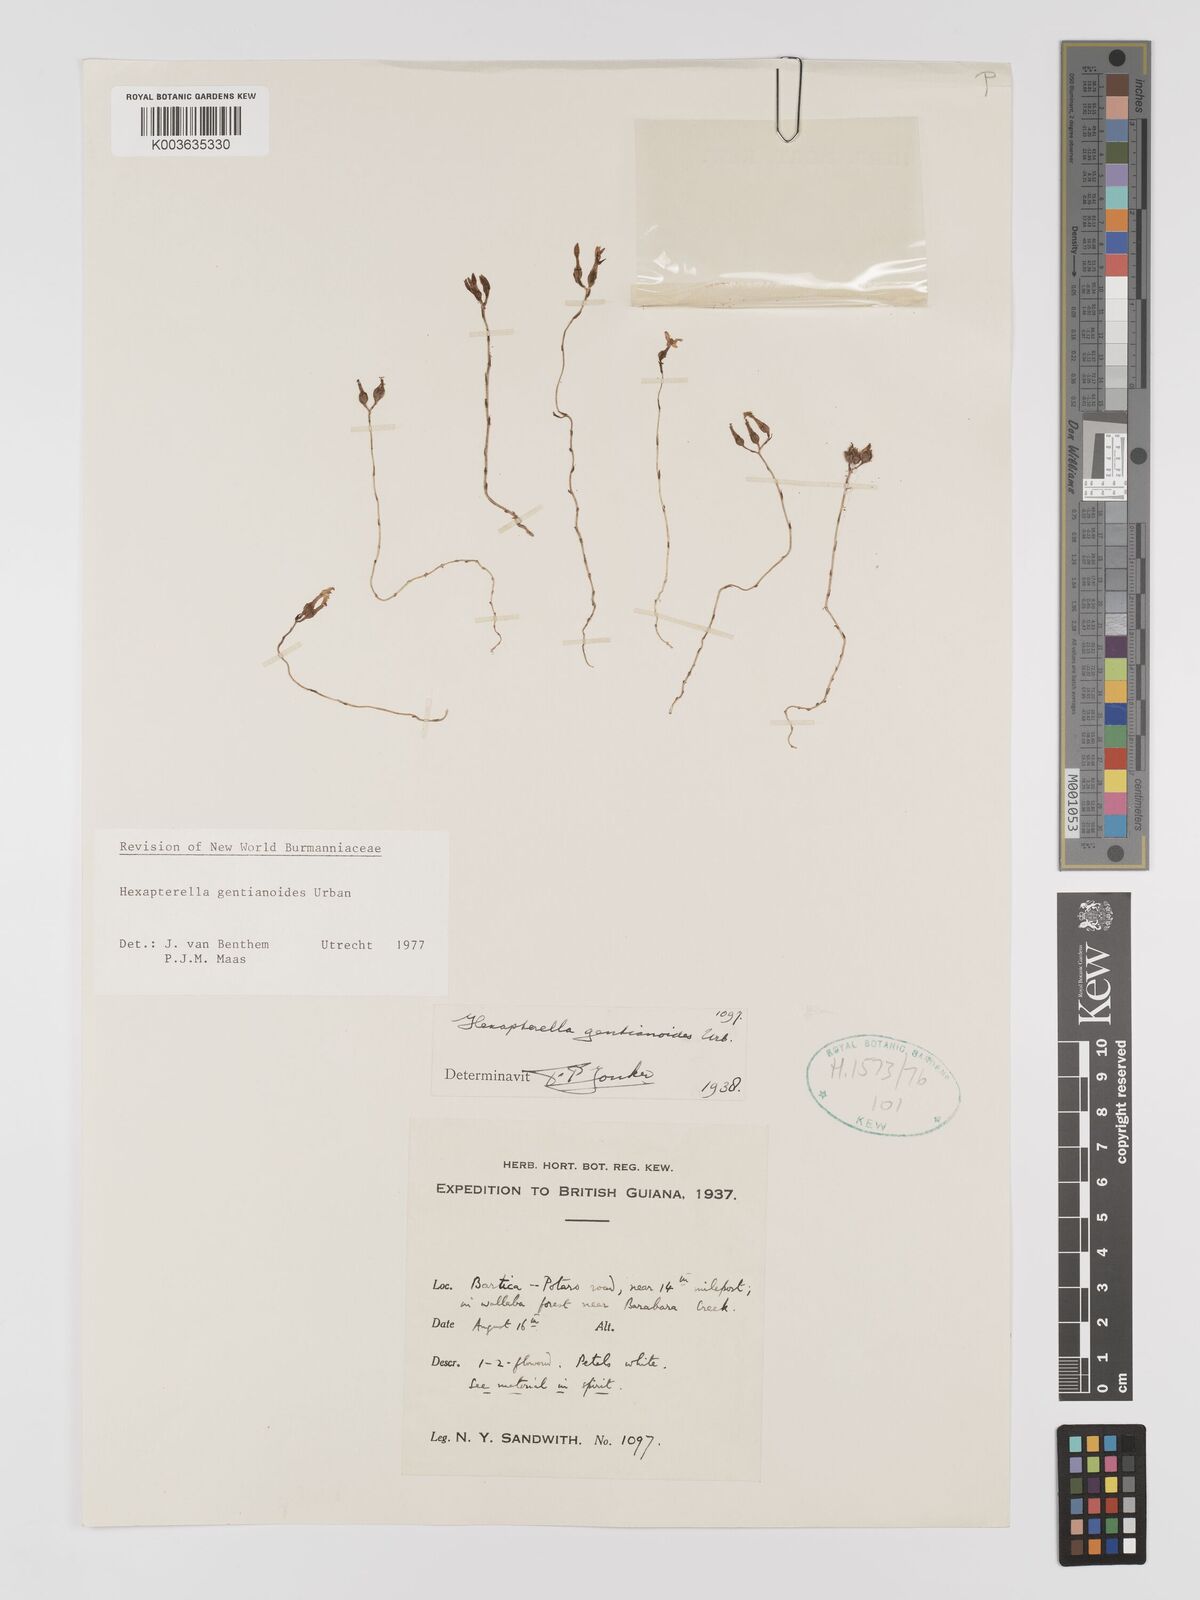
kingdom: Plantae
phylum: Tracheophyta
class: Liliopsida
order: Dioscoreales
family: Burmanniaceae
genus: Hexapterella
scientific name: Hexapterella gentianoides
